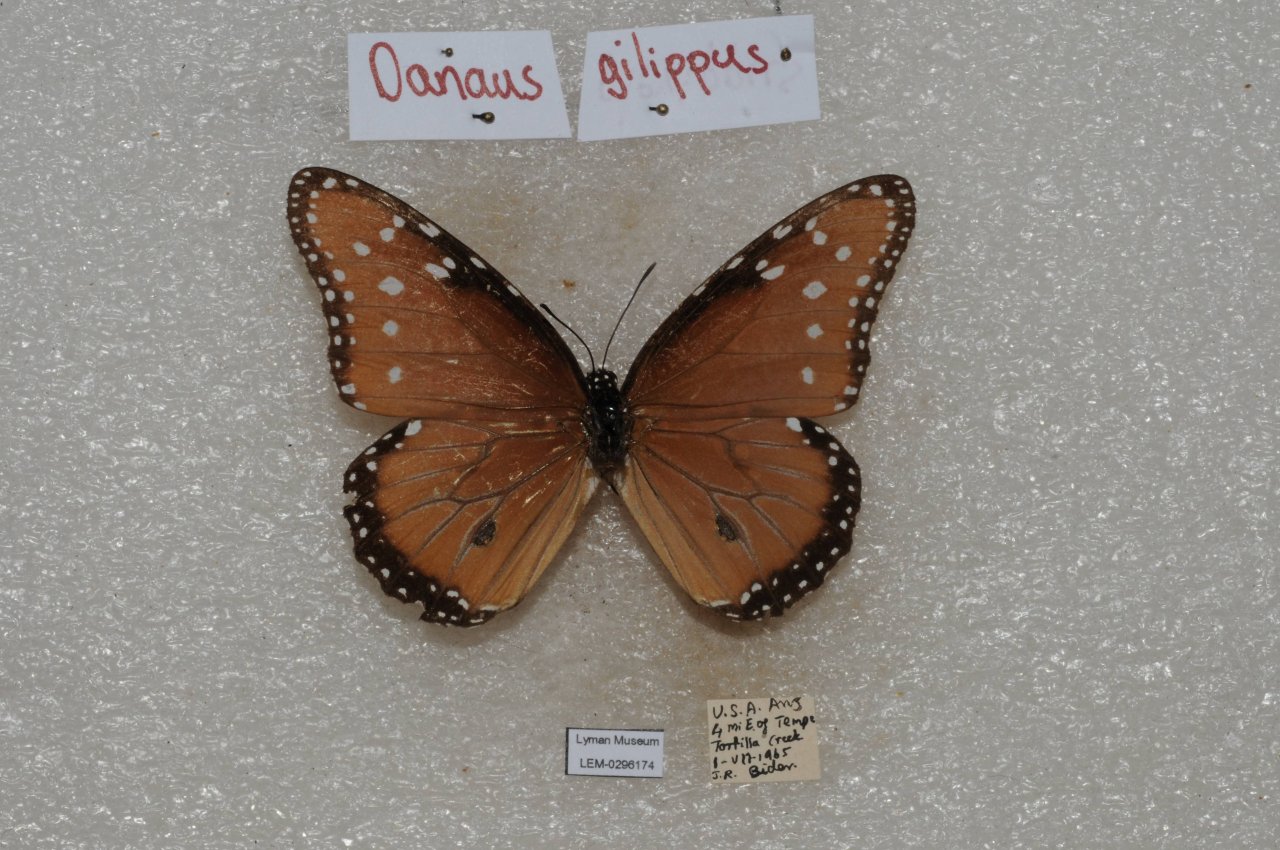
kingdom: Animalia
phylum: Arthropoda
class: Insecta
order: Lepidoptera
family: Nymphalidae
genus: Danaus
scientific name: Danaus gilippus
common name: Queen
